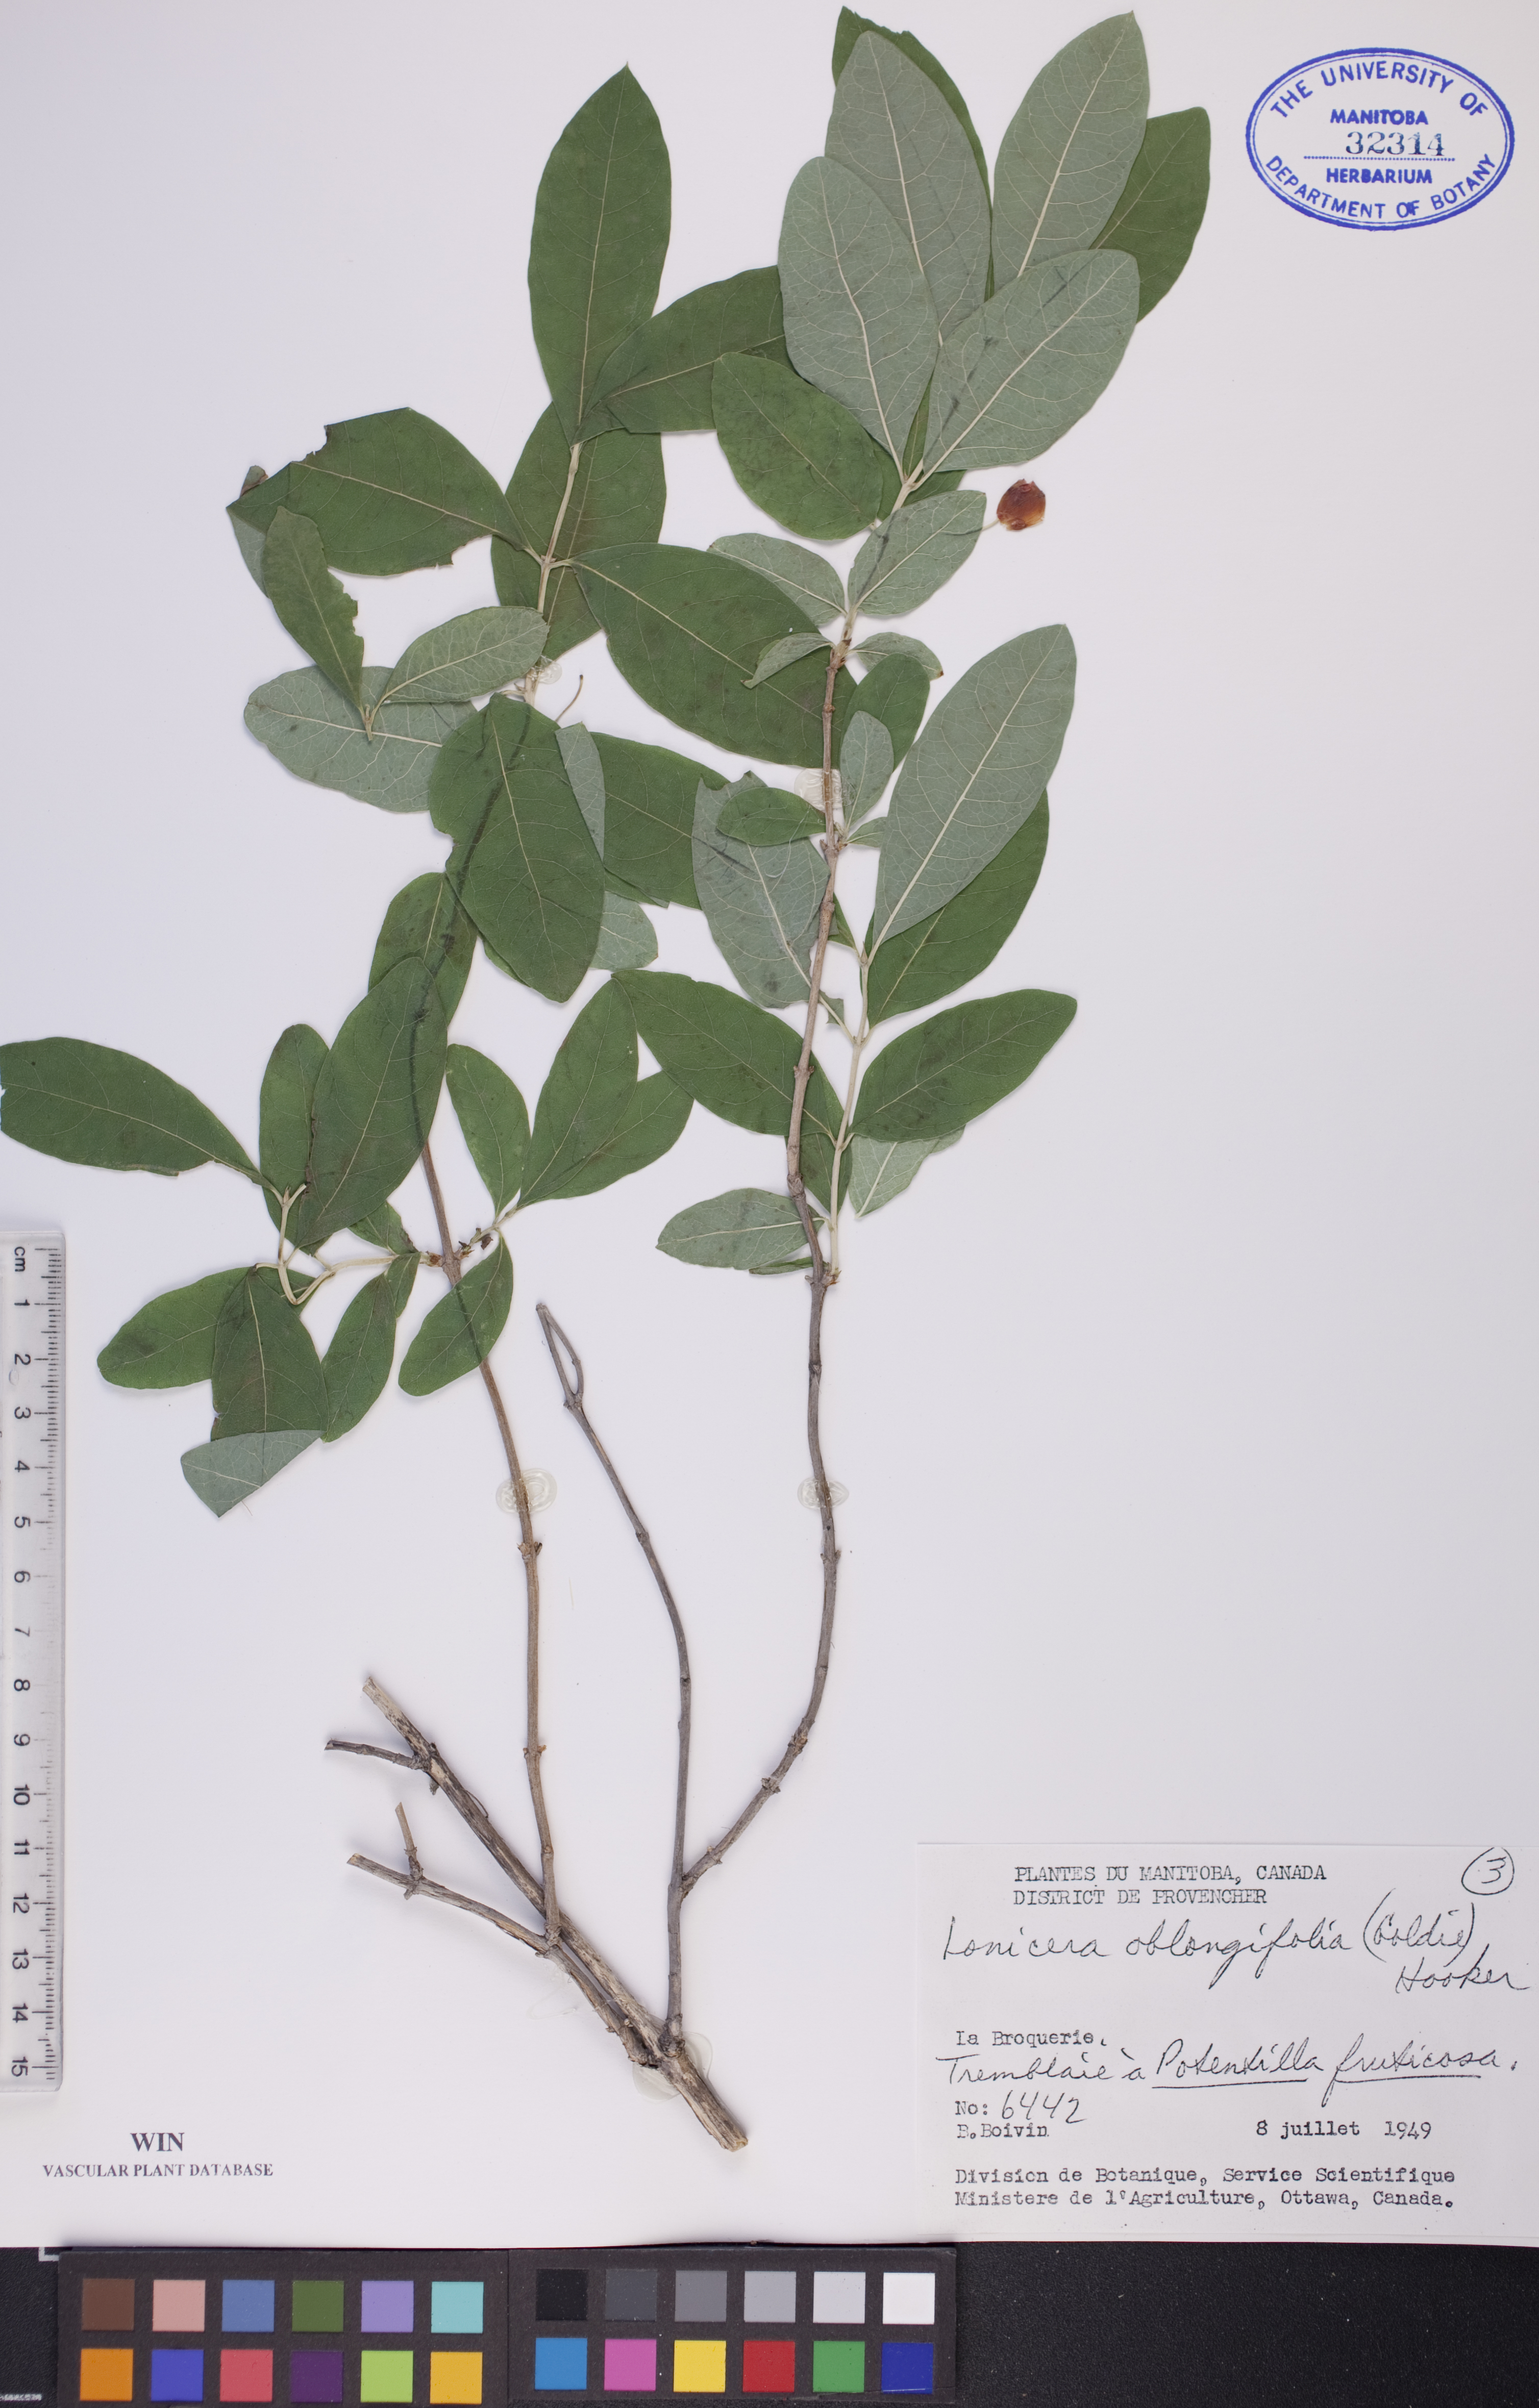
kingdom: Plantae
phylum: Tracheophyta
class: Magnoliopsida
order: Dipsacales
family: Caprifoliaceae
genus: Lonicera
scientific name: Lonicera oblongifolia
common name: Swamp fly honeysuckle
